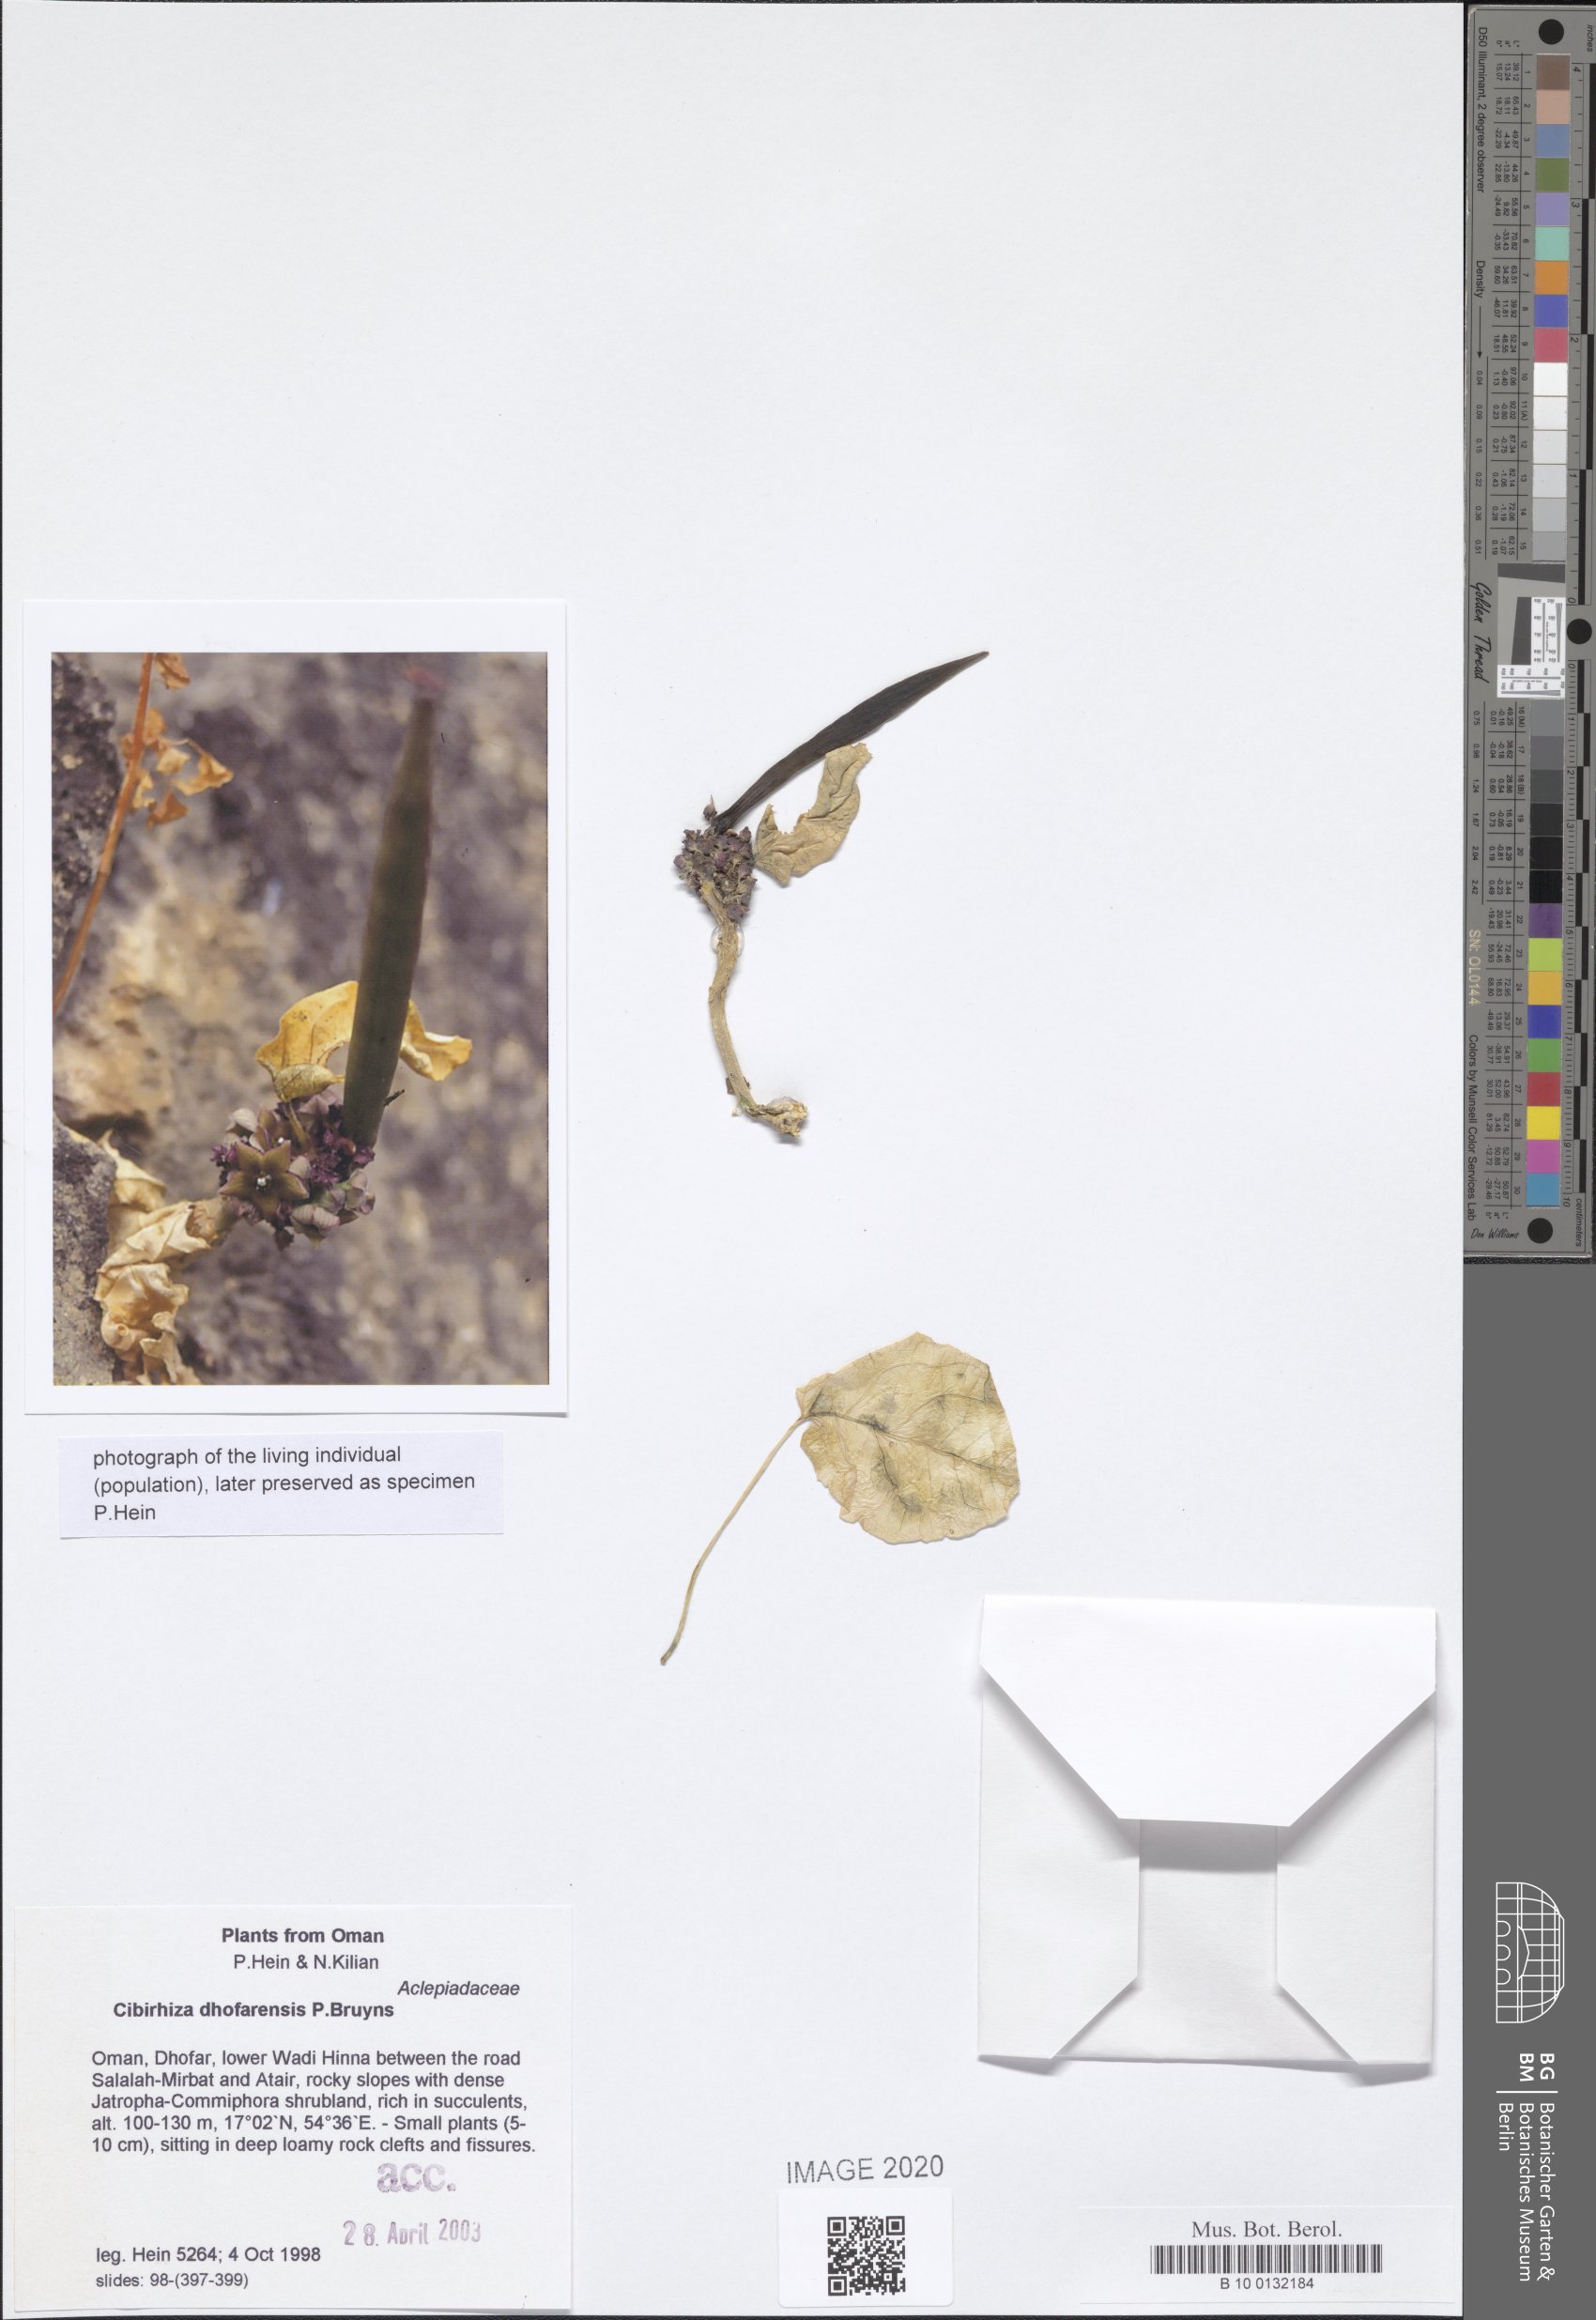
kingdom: Plantae
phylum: Tracheophyta
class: Magnoliopsida
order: Gentianales
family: Apocynaceae
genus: Cibirhiza
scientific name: Cibirhiza dhofarensis
